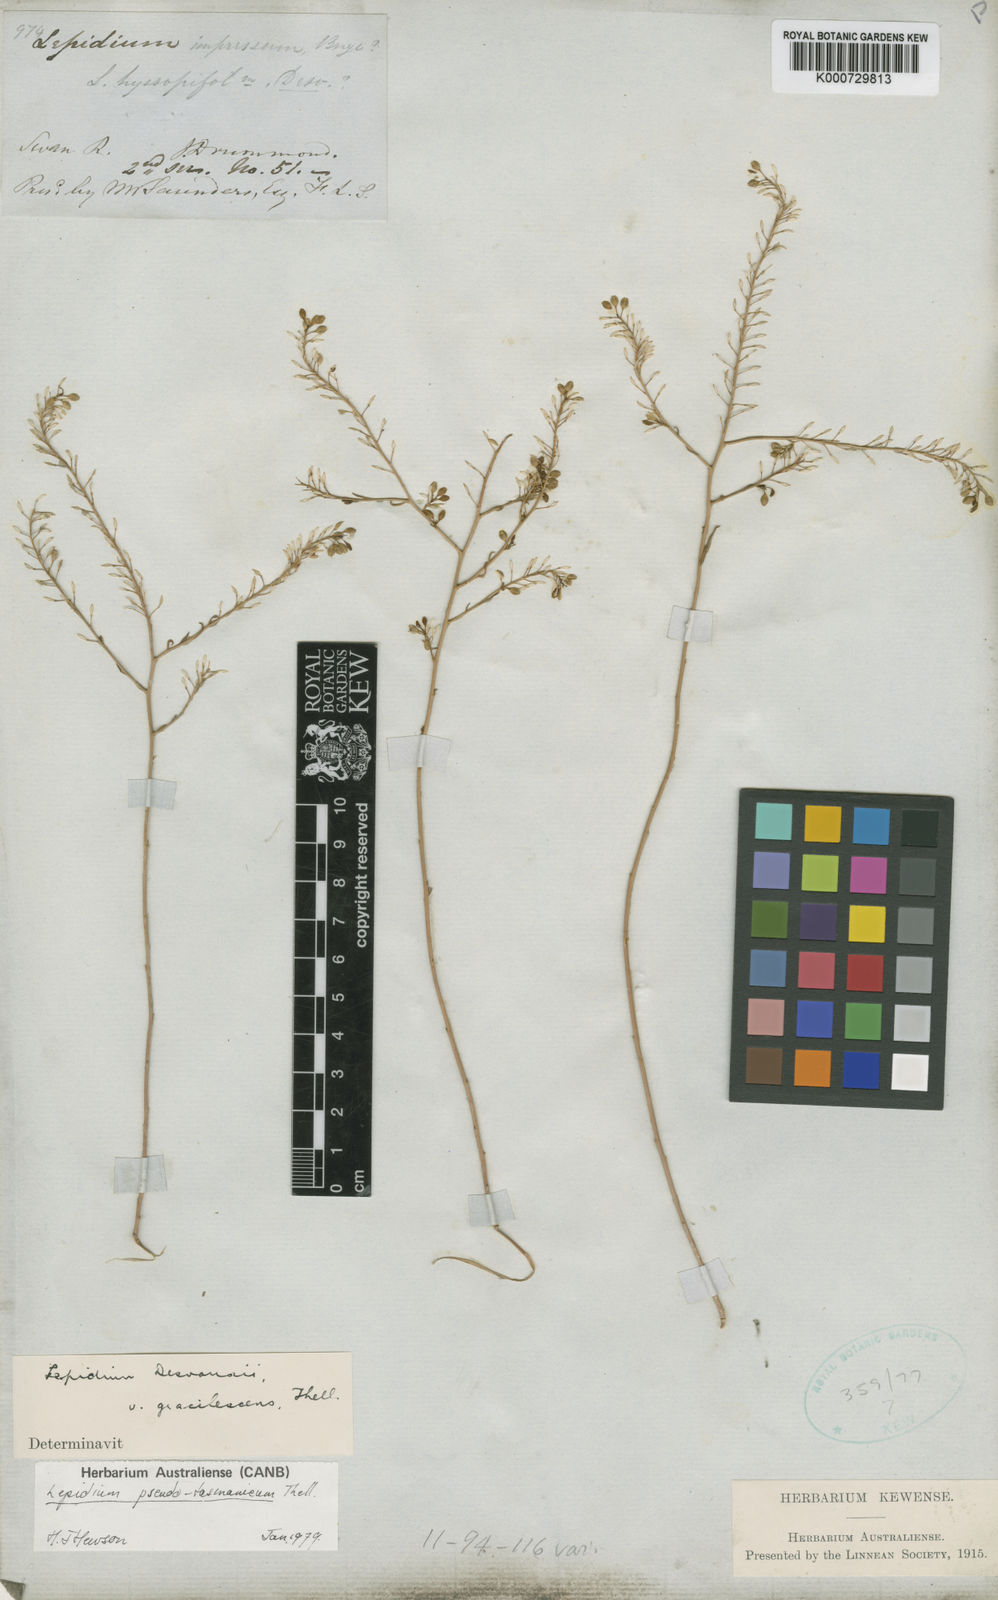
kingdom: Plantae
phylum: Tracheophyta
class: Magnoliopsida
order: Brassicales
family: Brassicaceae
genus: Lepidium
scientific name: Lepidium desvauxii
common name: Bushy pepperwort
